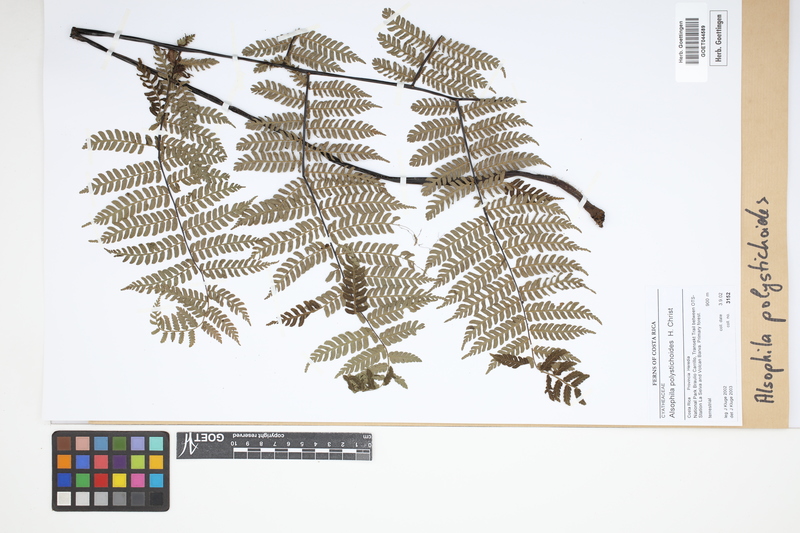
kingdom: Plantae
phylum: Tracheophyta
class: Polypodiopsida
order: Cyatheales
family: Cyatheaceae
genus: Alsophila
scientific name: Alsophila polystichoides
